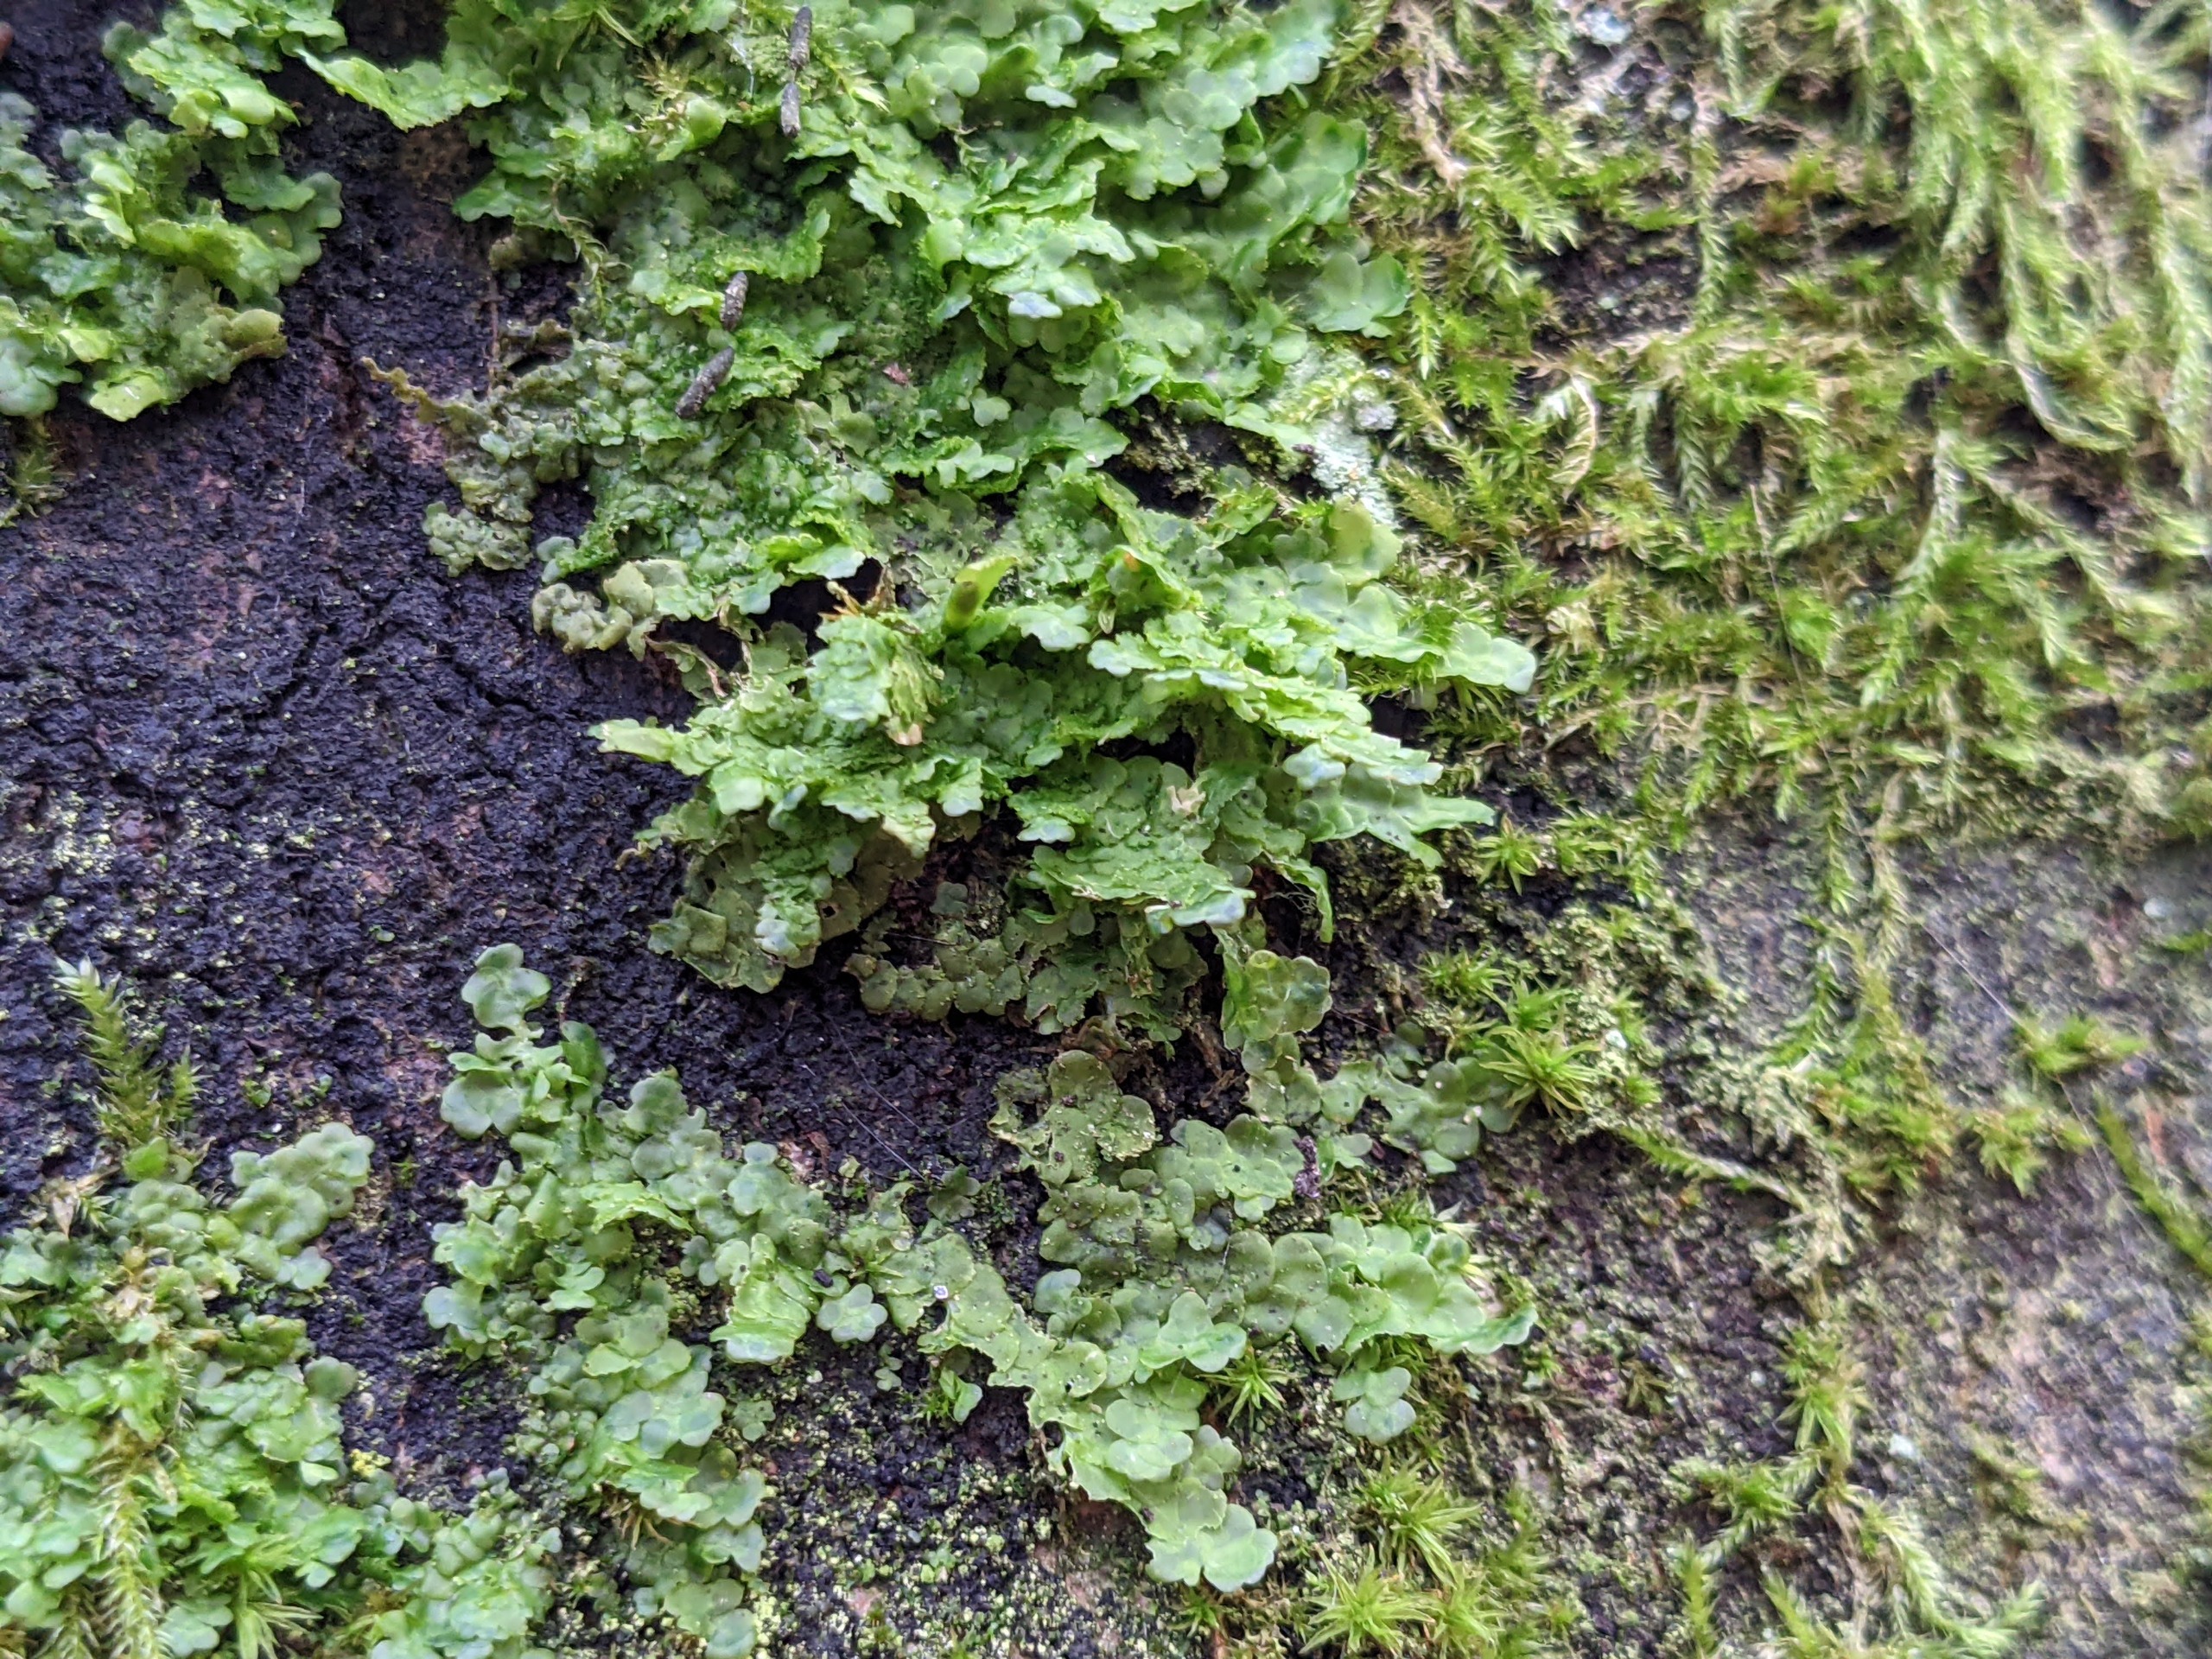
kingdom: Plantae
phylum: Marchantiophyta
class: Jungermanniopsida
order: Porellales
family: Radulaceae
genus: Radula
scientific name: Radula complanata
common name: Almindelig spartelmos
